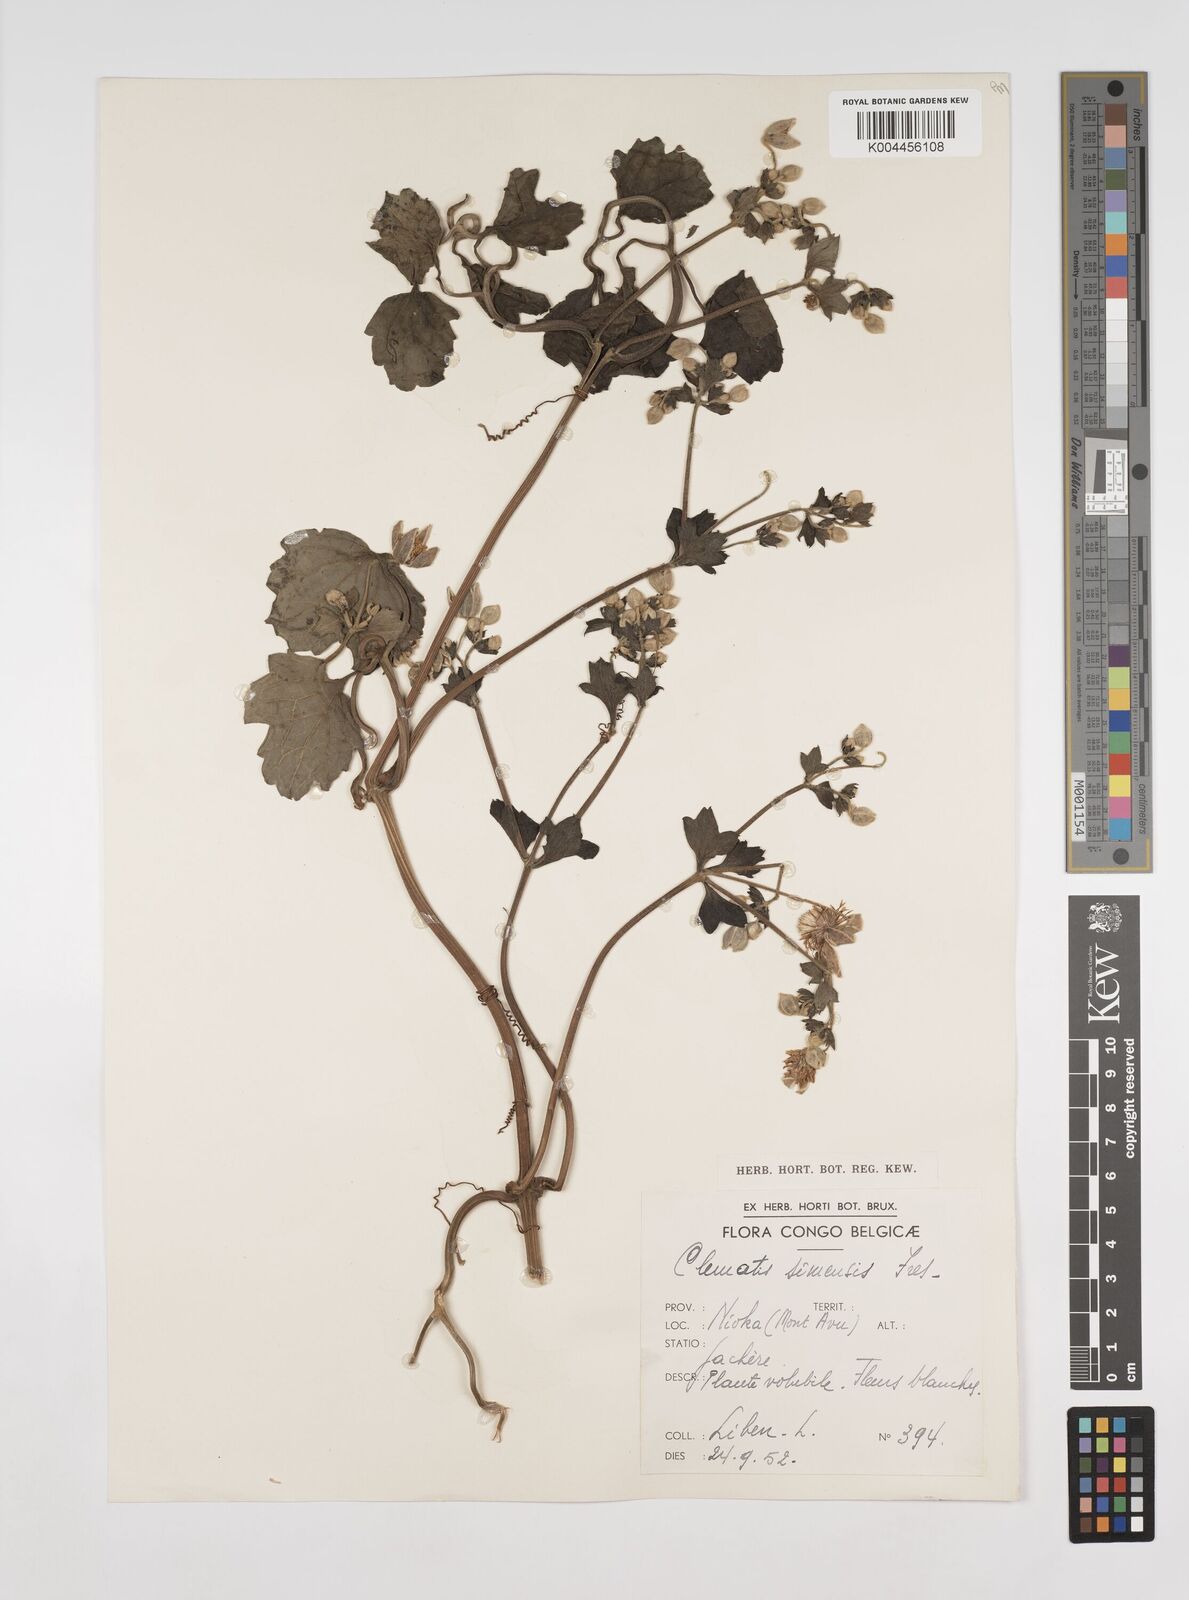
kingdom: Plantae
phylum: Tracheophyta
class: Magnoliopsida
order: Ranunculales
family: Ranunculaceae
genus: Clematis
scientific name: Clematis simensis
